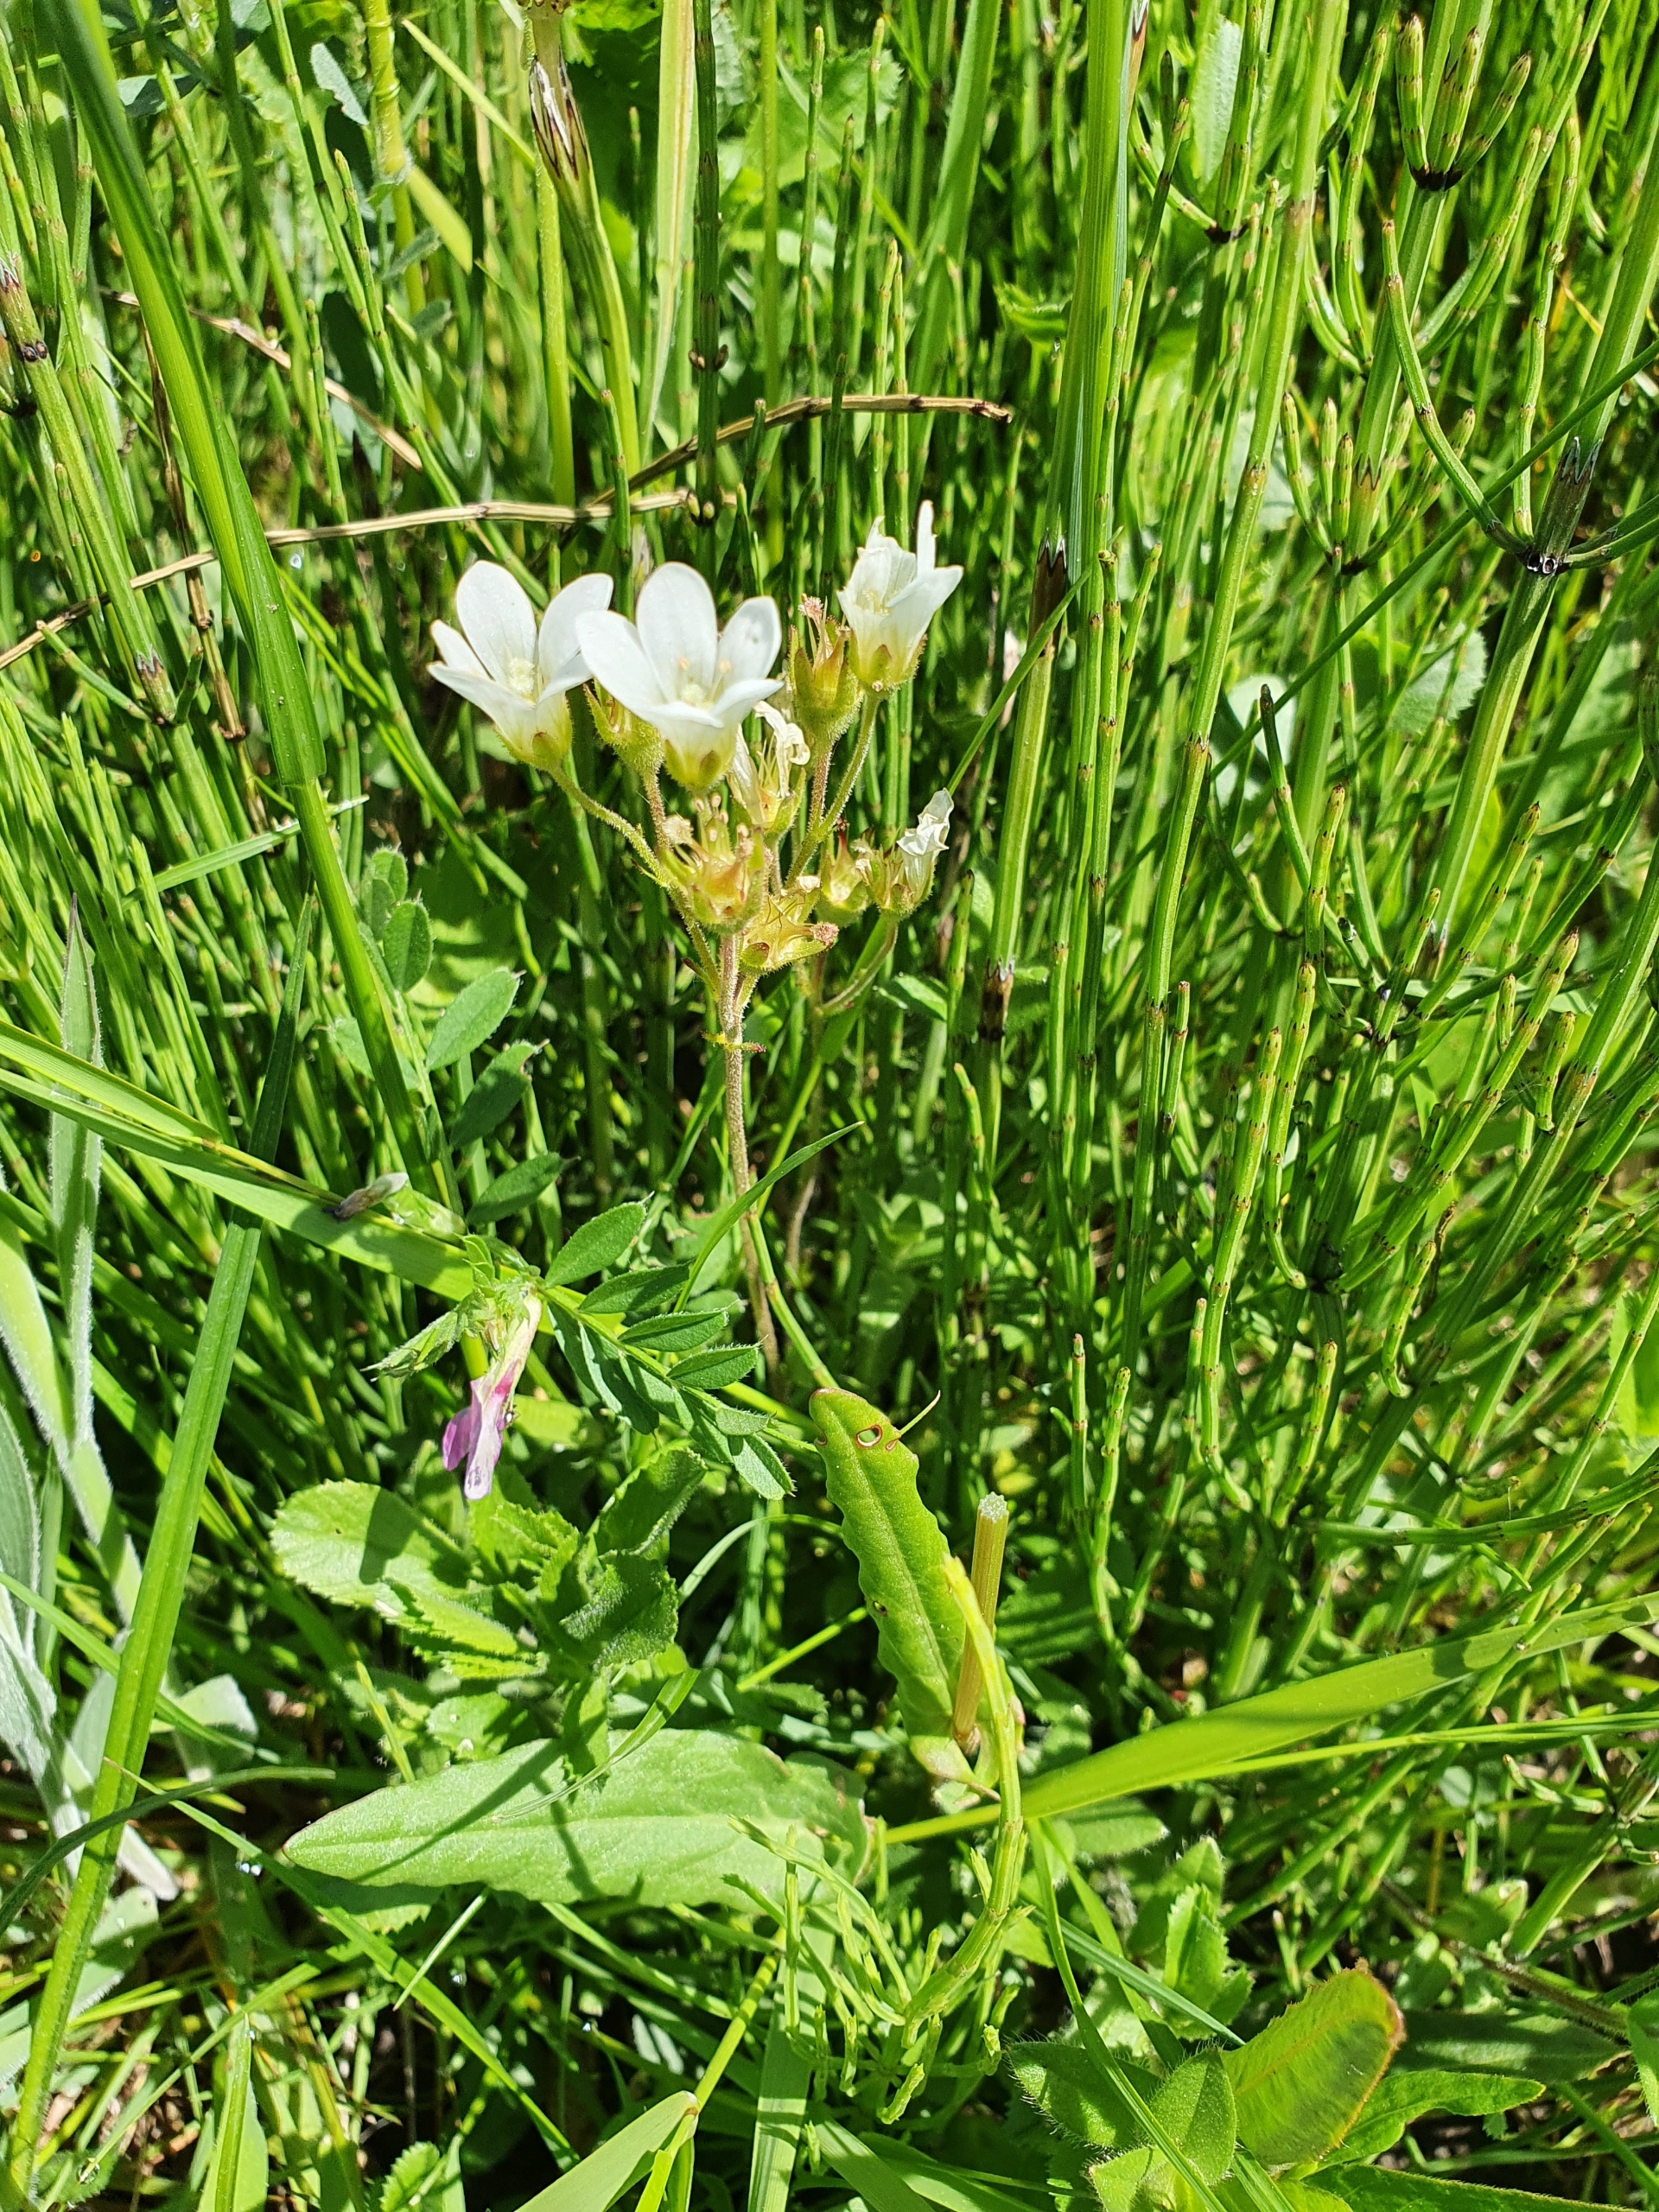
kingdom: Plantae
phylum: Tracheophyta
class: Magnoliopsida
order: Saxifragales
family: Saxifragaceae
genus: Saxifraga
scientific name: Saxifraga granulata
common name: Kornet stenbræk
